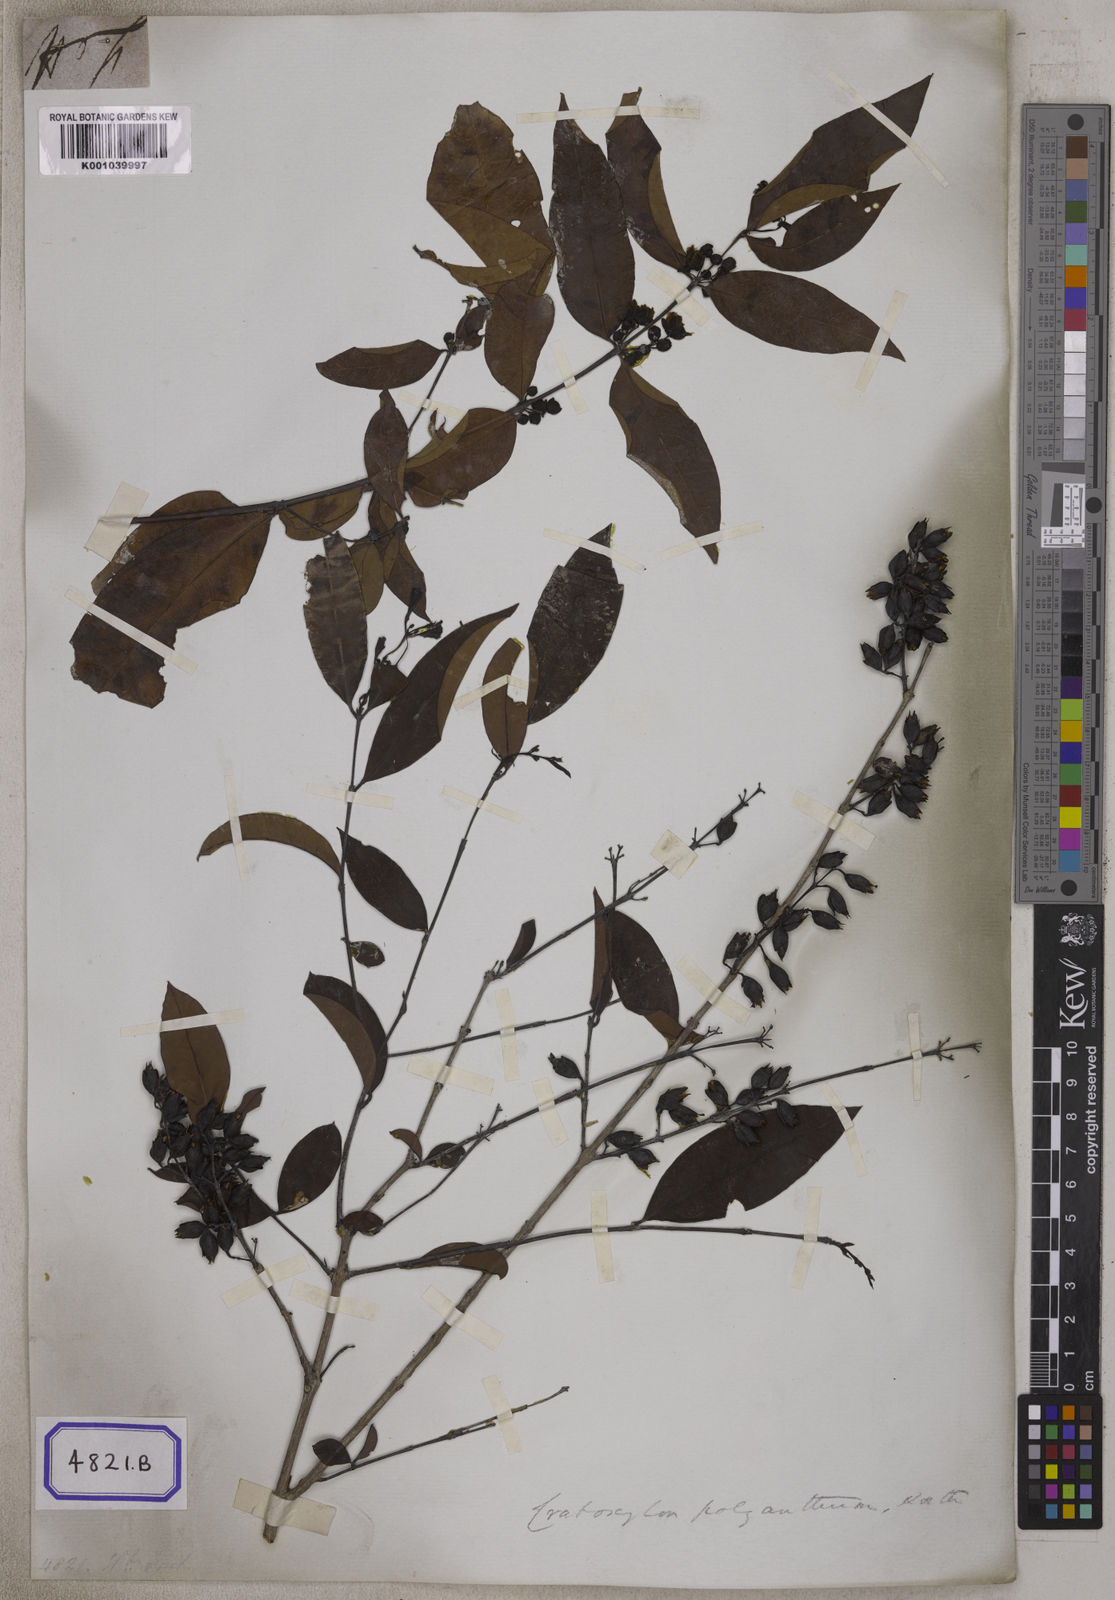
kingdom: Plantae
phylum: Tracheophyta
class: Magnoliopsida
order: Malpighiales
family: Hypericaceae
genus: Hypericum
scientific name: Hypericum
